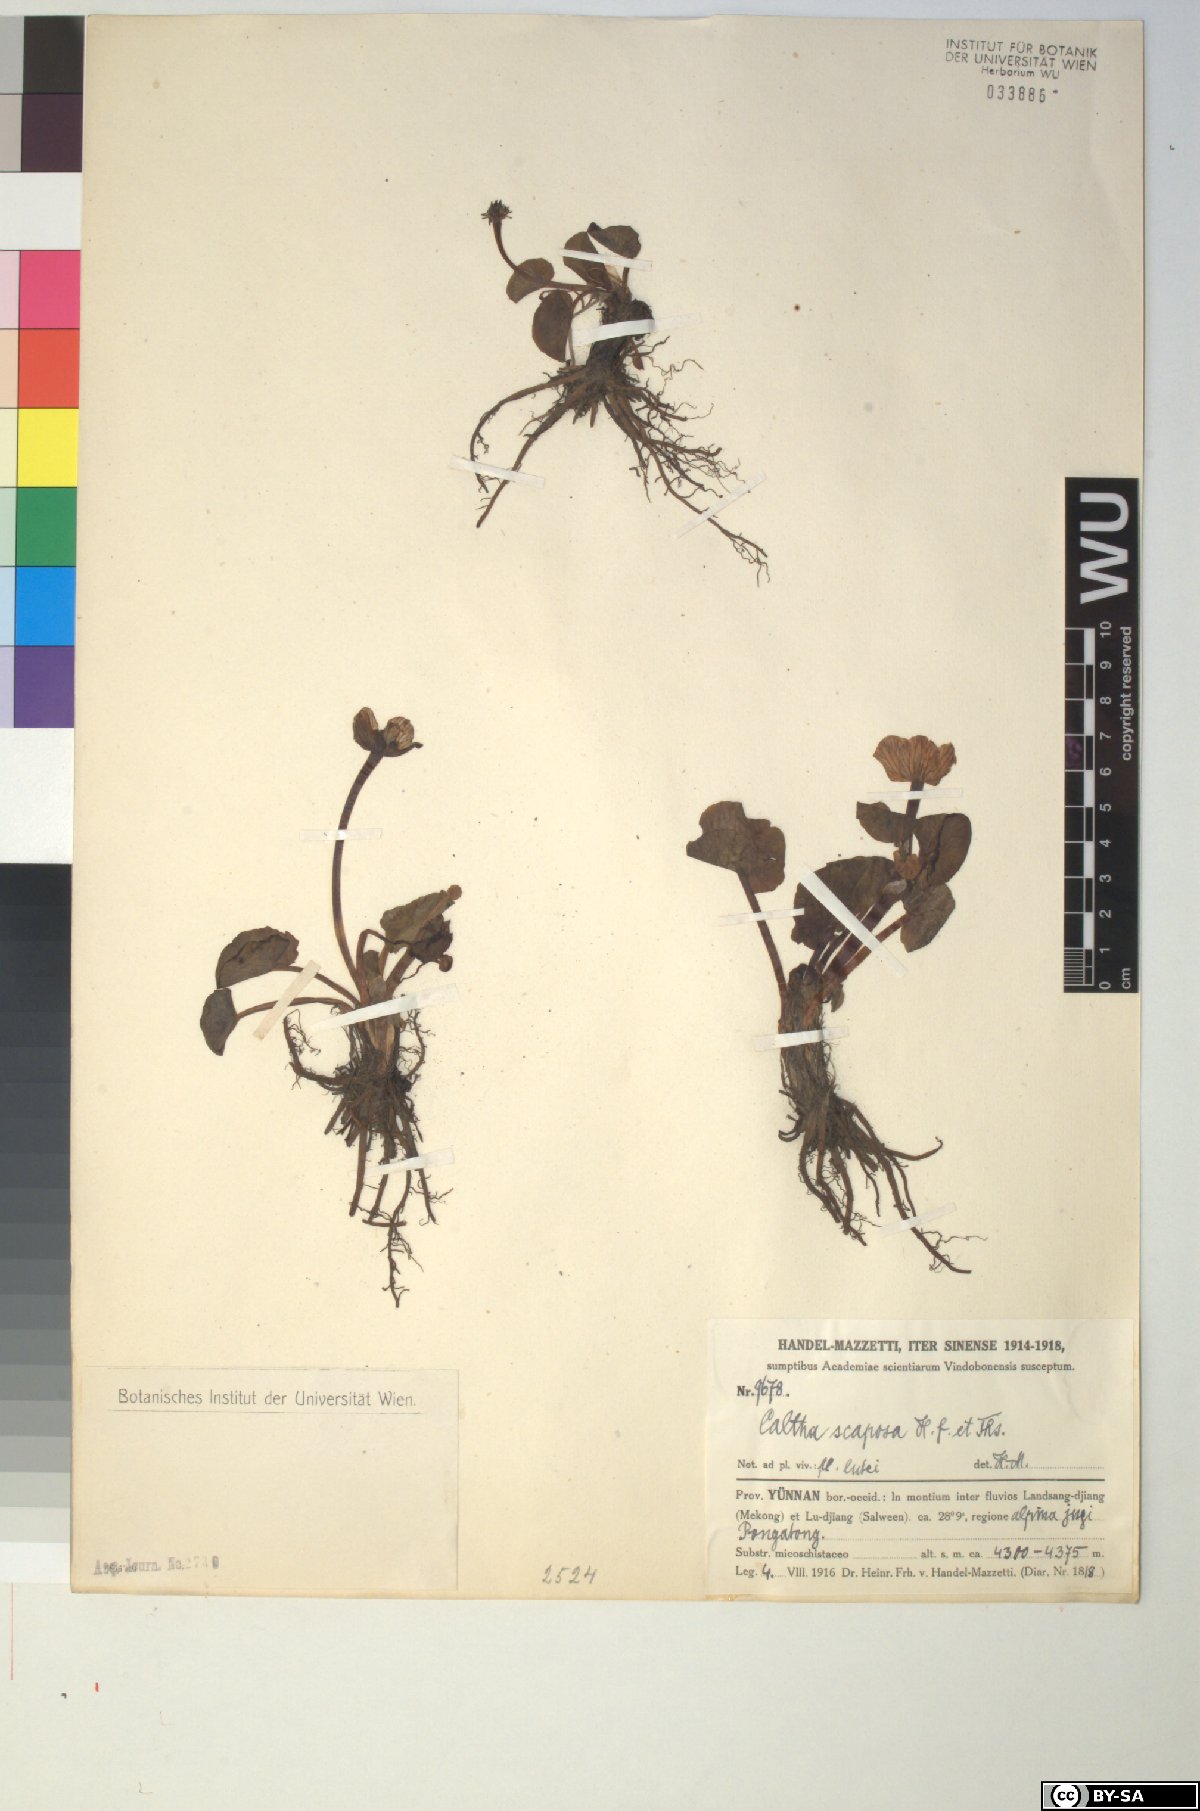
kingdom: Plantae
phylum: Tracheophyta
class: Magnoliopsida
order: Ranunculales
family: Ranunculaceae
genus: Caltha
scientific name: Caltha scaposa
